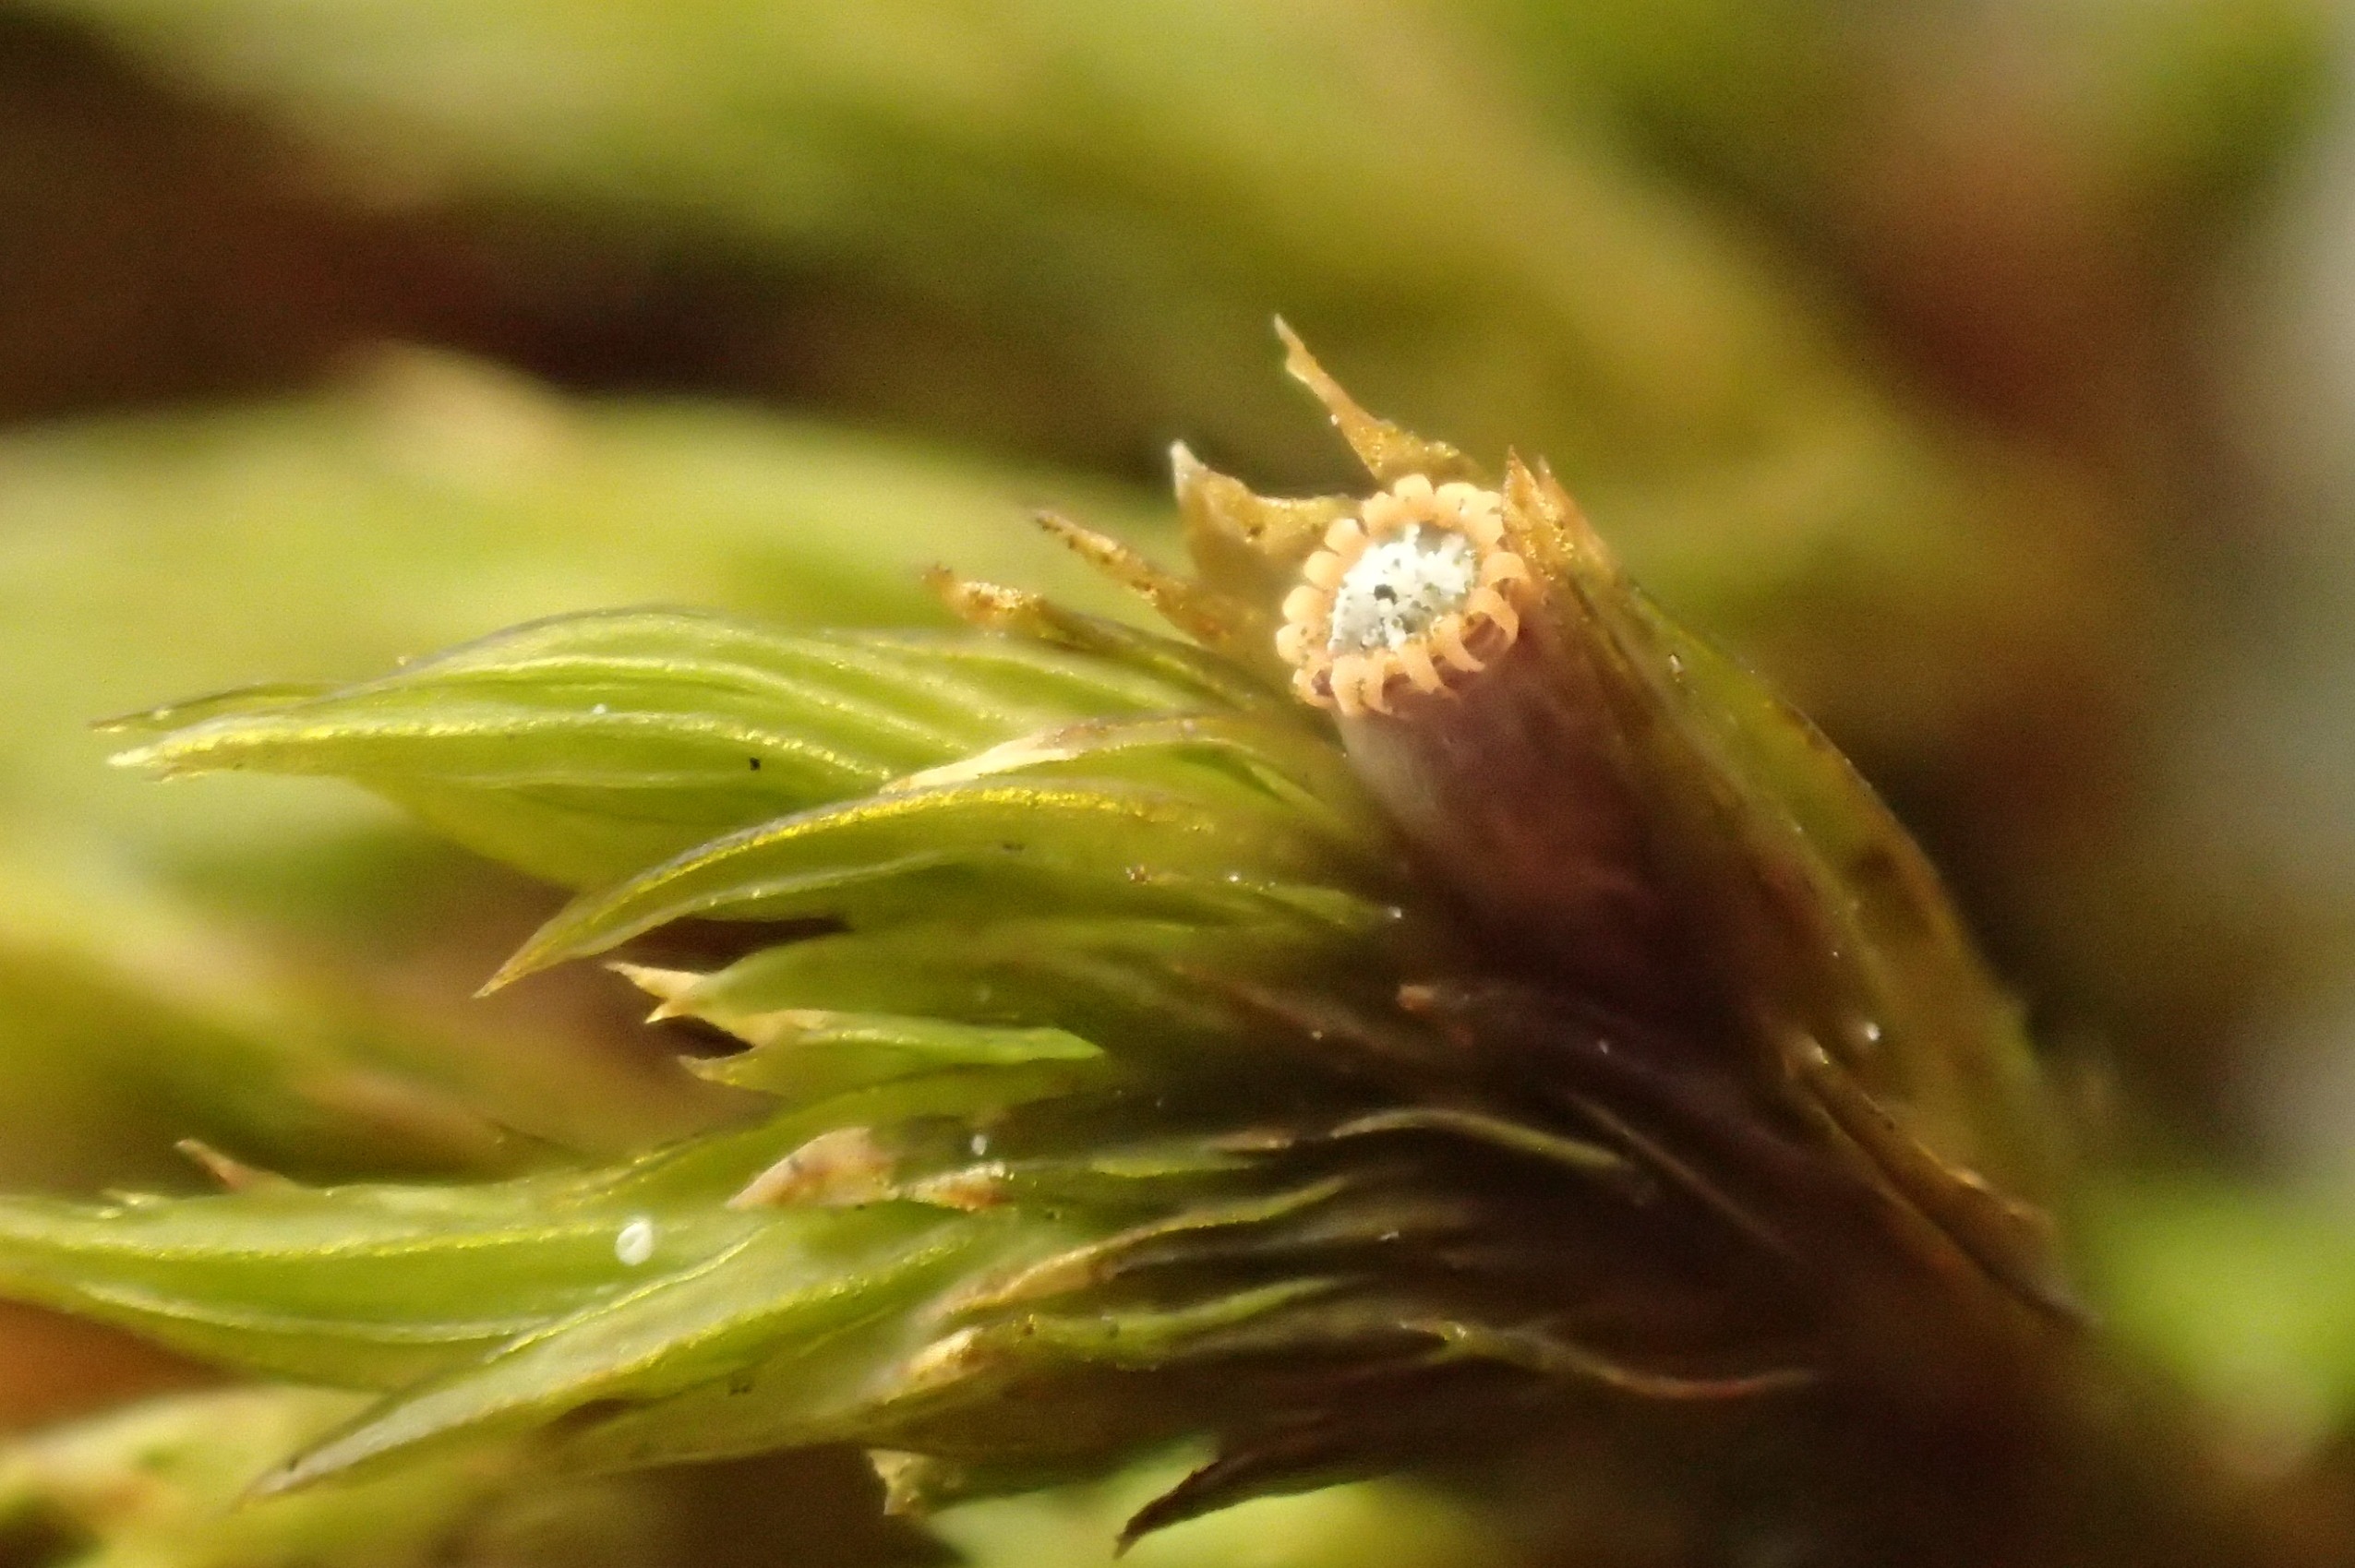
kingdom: Plantae
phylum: Bryophyta
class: Bryopsida
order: Orthotrichales
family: Orthotrichaceae
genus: Lewinskya
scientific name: Lewinskya striata
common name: Glatkapslet furehætte
